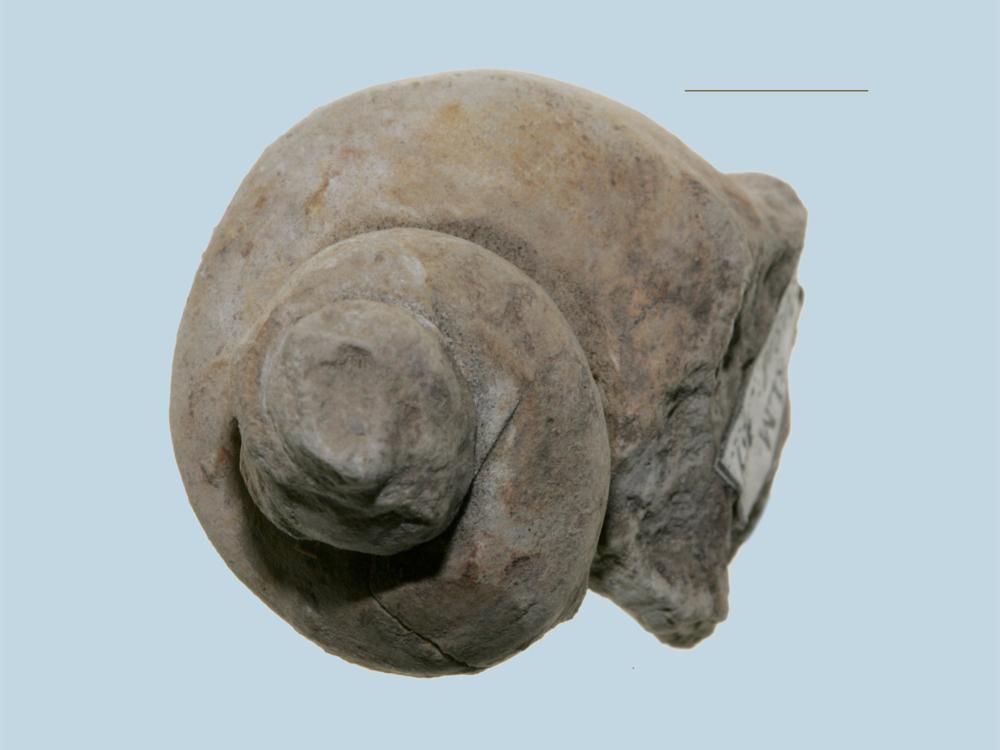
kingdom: Animalia
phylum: Mollusca
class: Gastropoda
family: Lophospiridae
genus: Ruedemannia
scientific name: Ruedemannia Worthenia borkholmiensis
